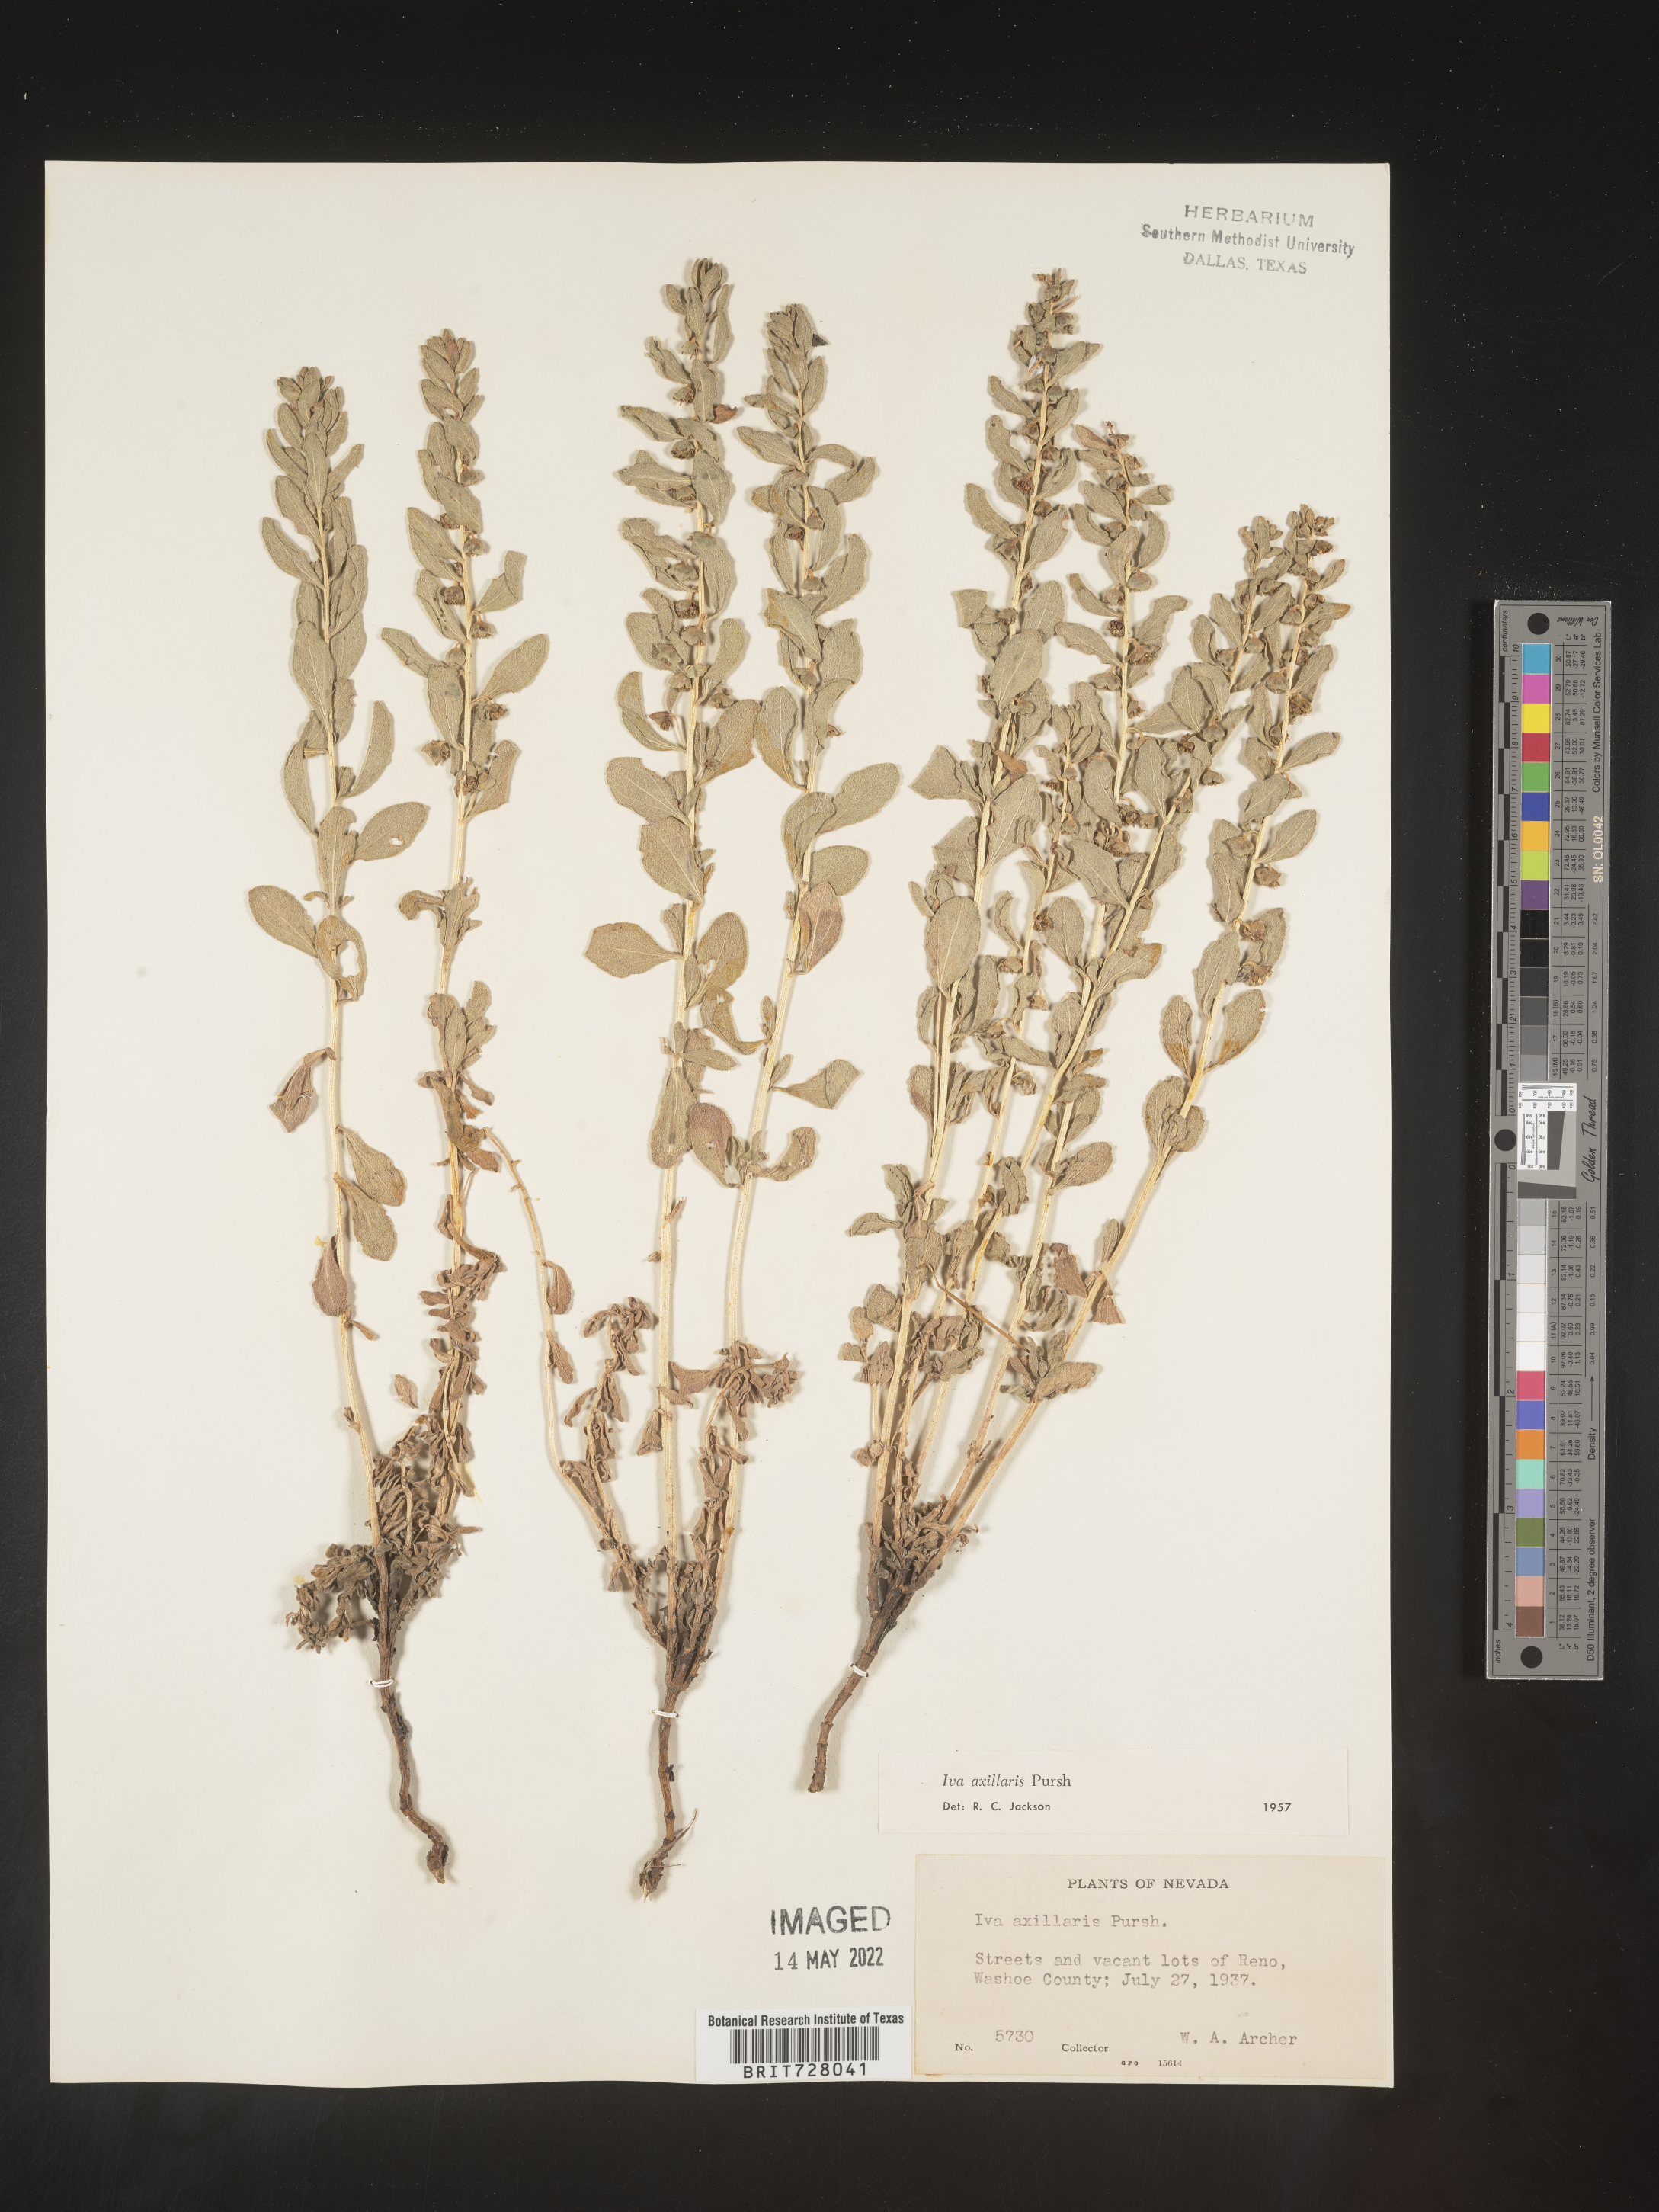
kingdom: Plantae
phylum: Tracheophyta
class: Magnoliopsida
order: Asterales
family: Asteraceae
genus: Iva
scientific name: Iva axillaris
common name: Poverty sumpweed
